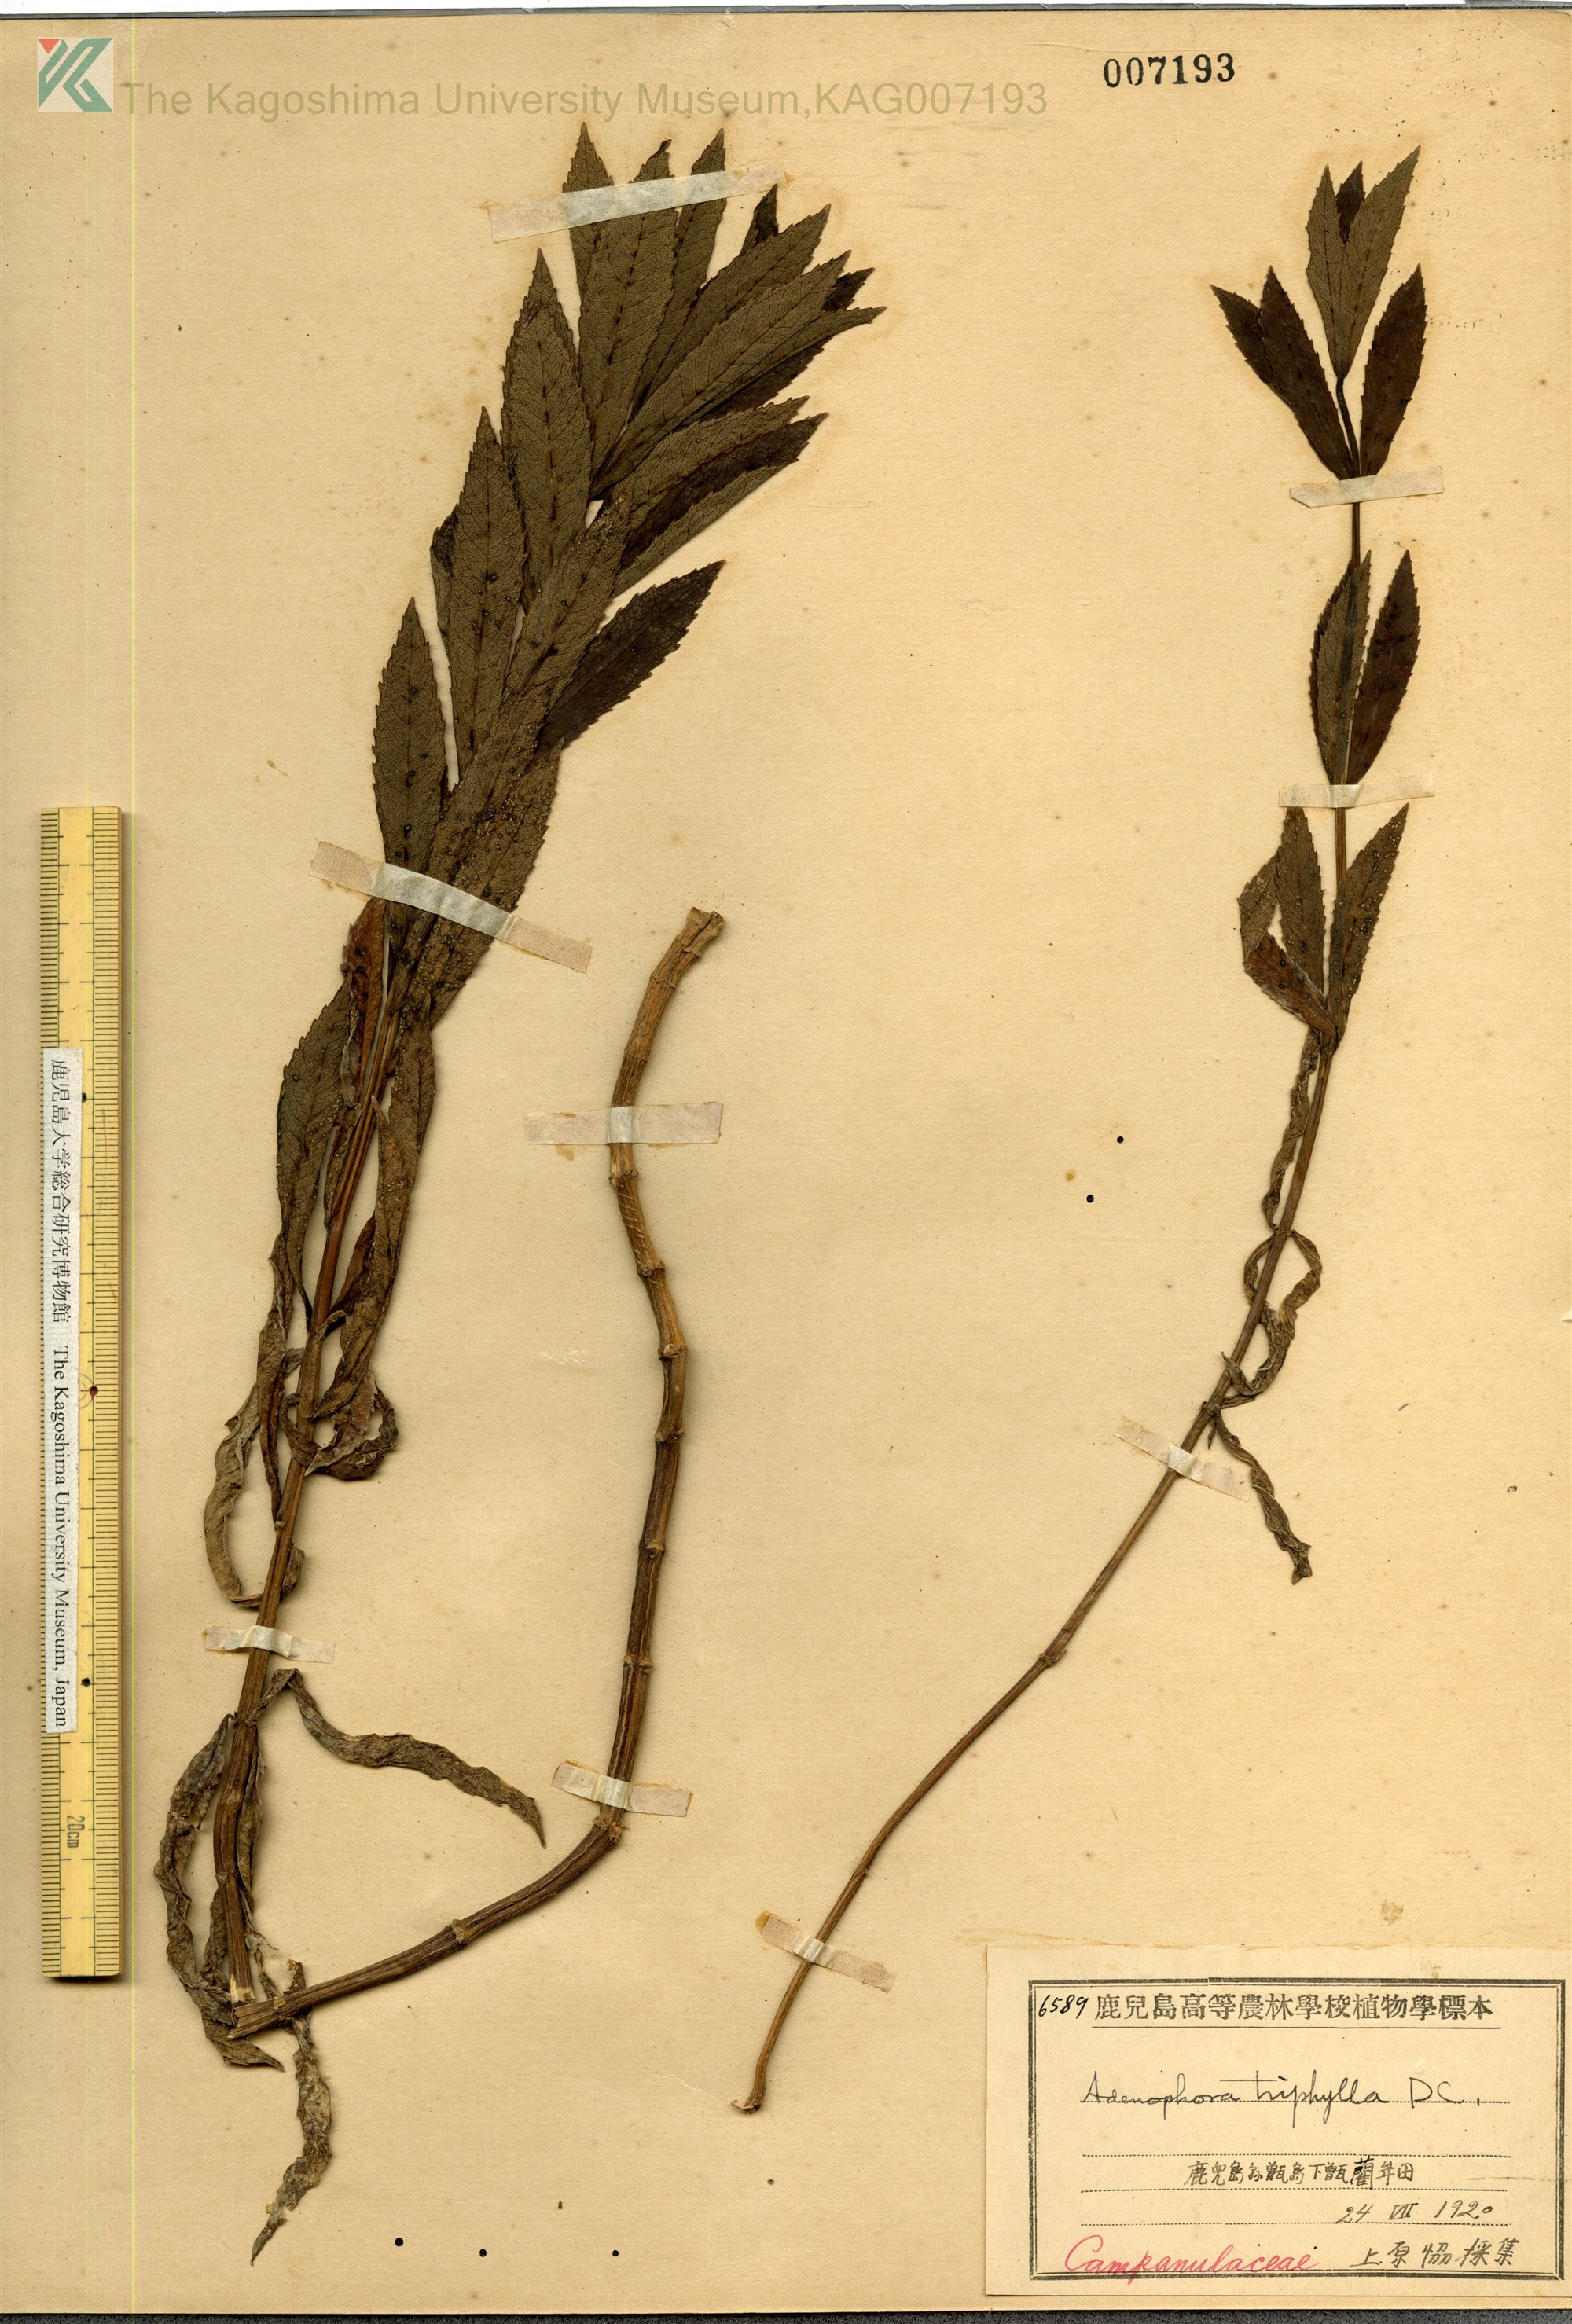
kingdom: Plantae
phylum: Tracheophyta
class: Magnoliopsida
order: Asterales
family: Campanulaceae
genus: Adenophora
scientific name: Adenophora triphylla
